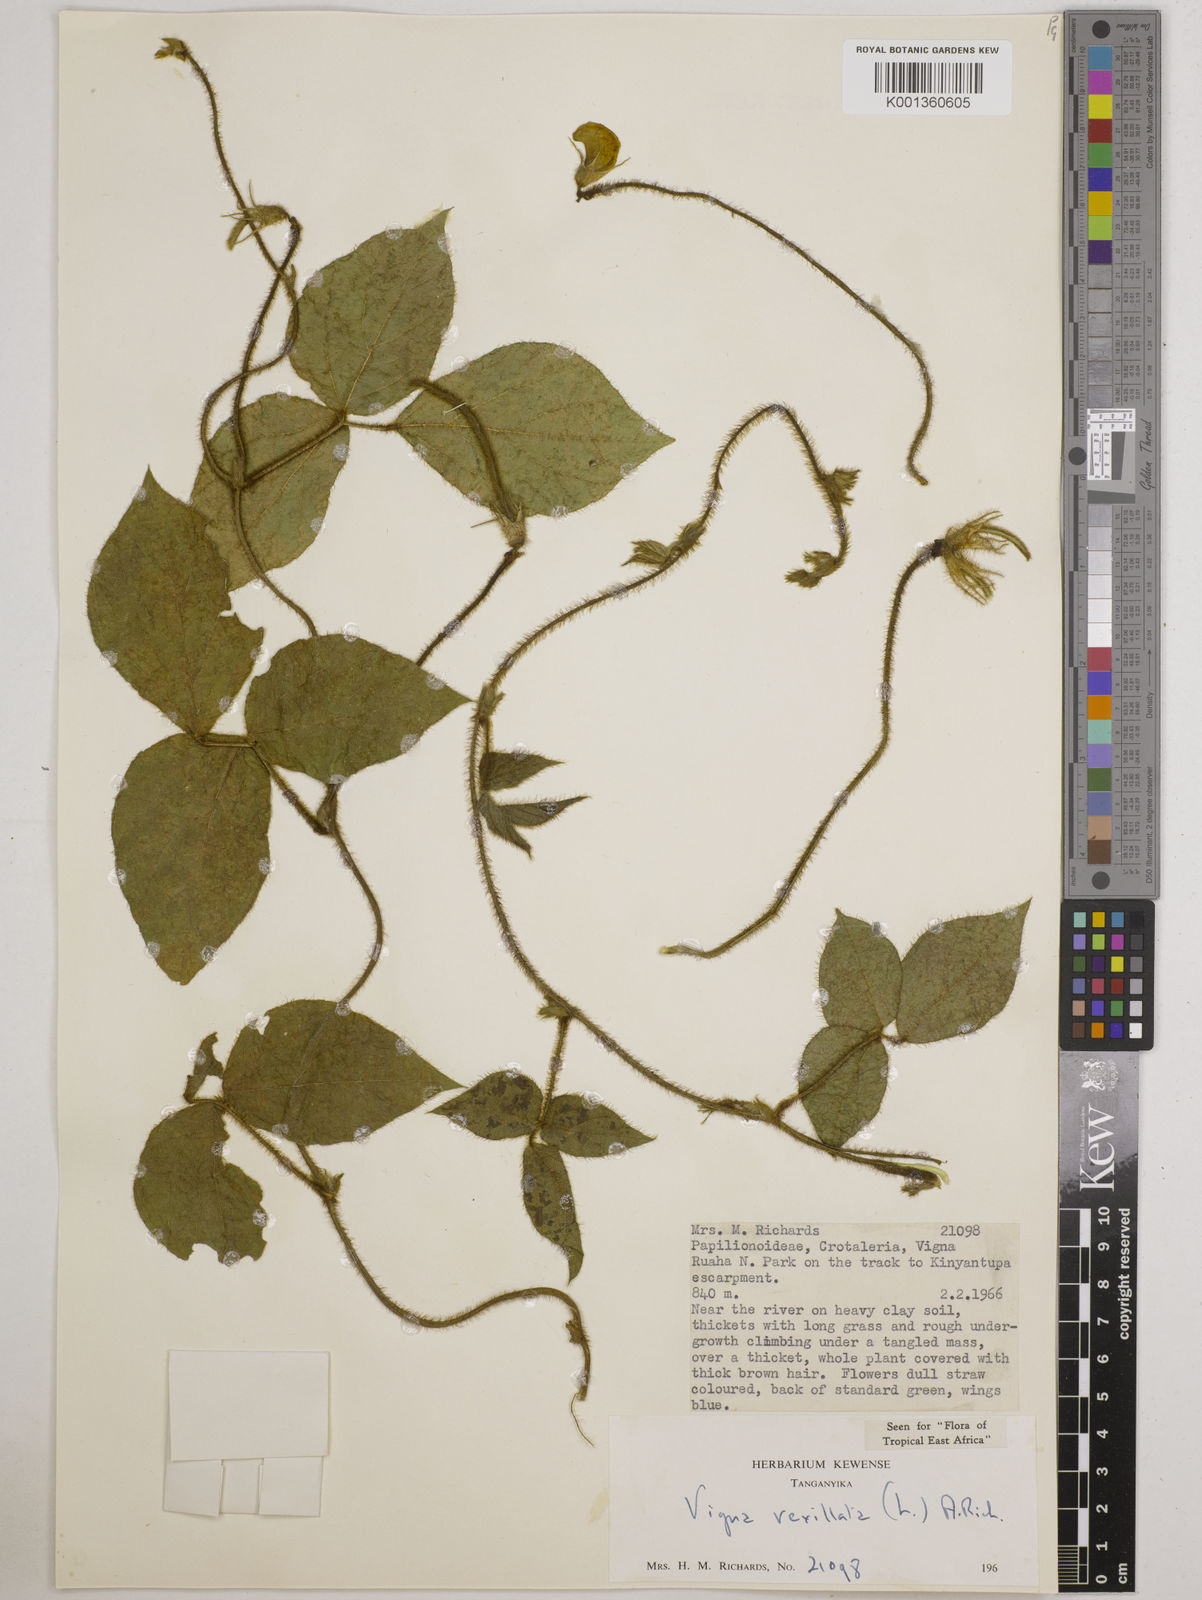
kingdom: Plantae
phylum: Tracheophyta
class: Magnoliopsida
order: Fabales
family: Fabaceae
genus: Vigna
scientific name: Vigna vexillata
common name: Zombi pea
